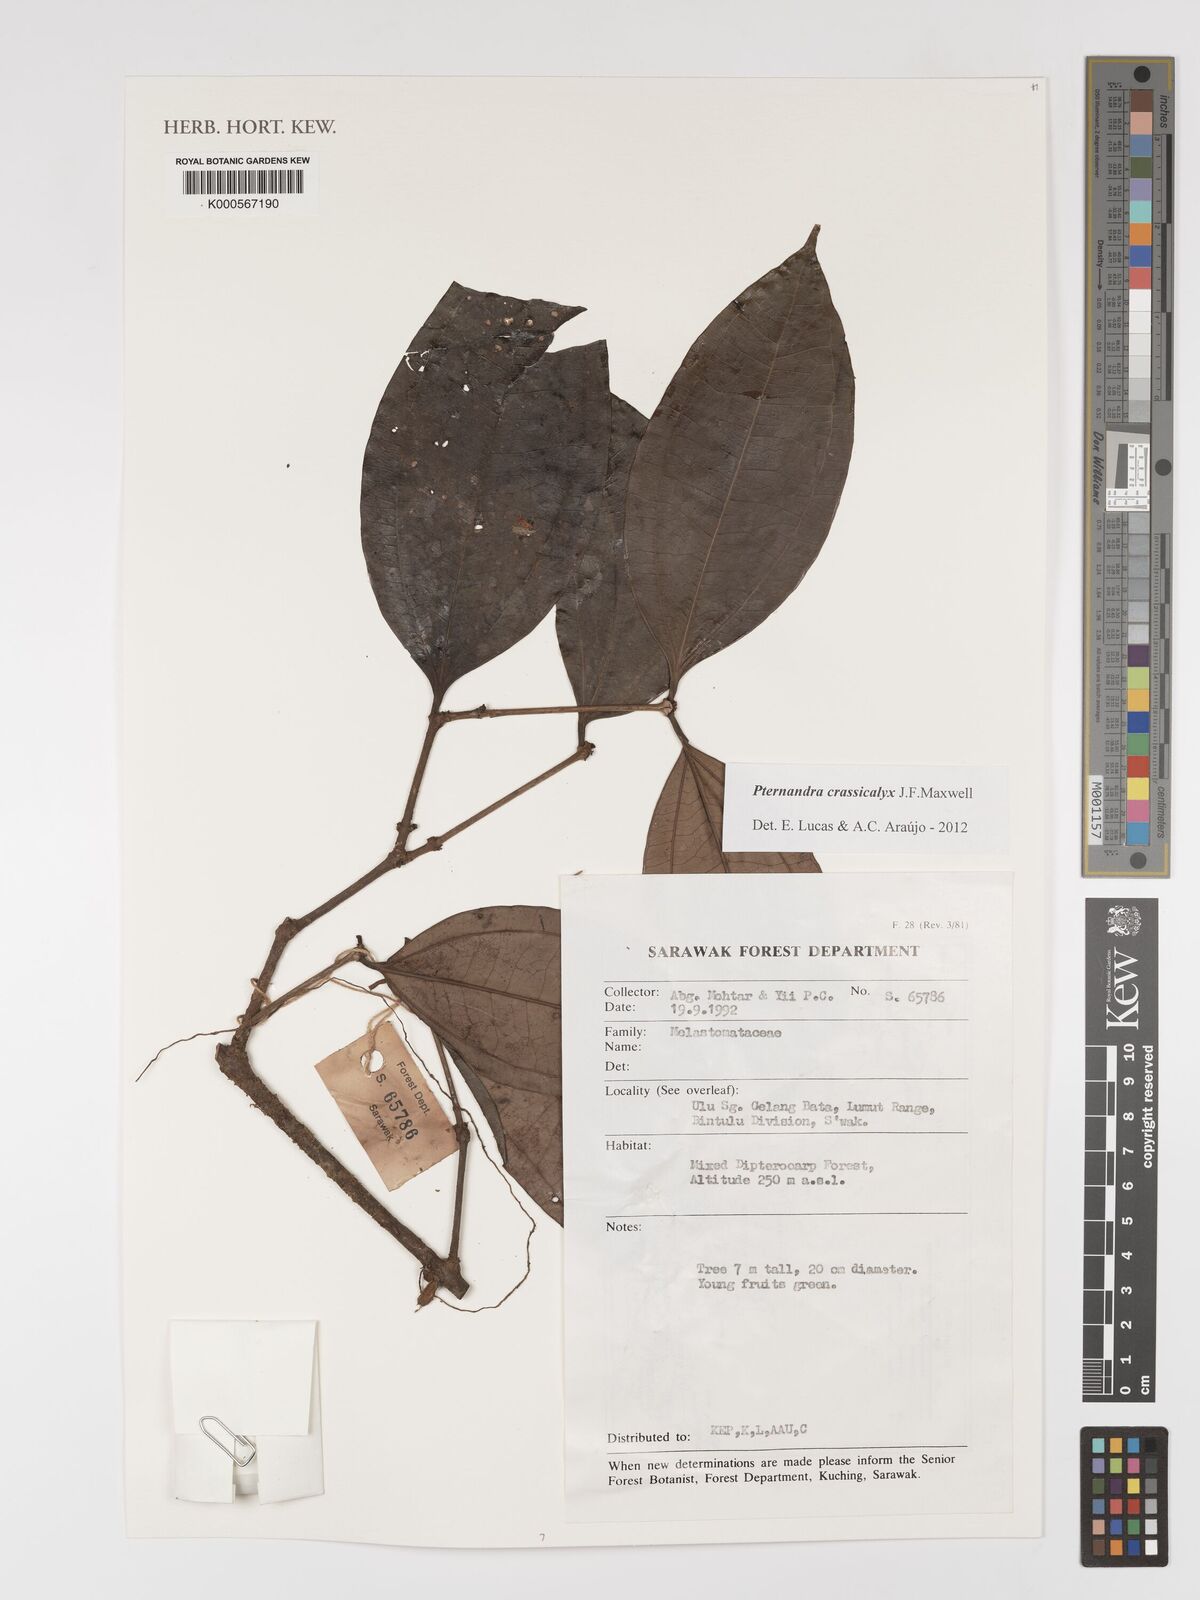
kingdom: Plantae
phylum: Tracheophyta
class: Magnoliopsida
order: Myrtales
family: Melastomataceae
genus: Pternandra
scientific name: Pternandra crassicalyx
